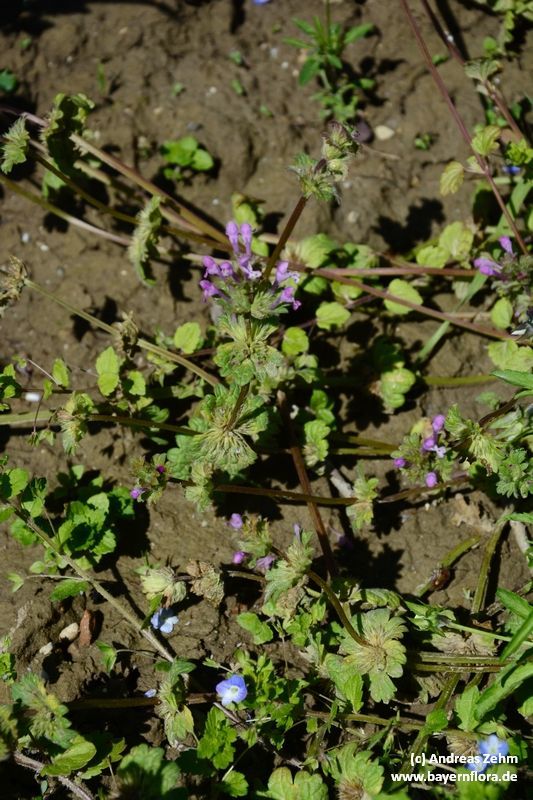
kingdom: Plantae
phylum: Tracheophyta
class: Magnoliopsida
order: Lamiales
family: Lamiaceae
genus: Lamium
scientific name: Lamium amplexicaule
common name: Henbit dead-nettle
